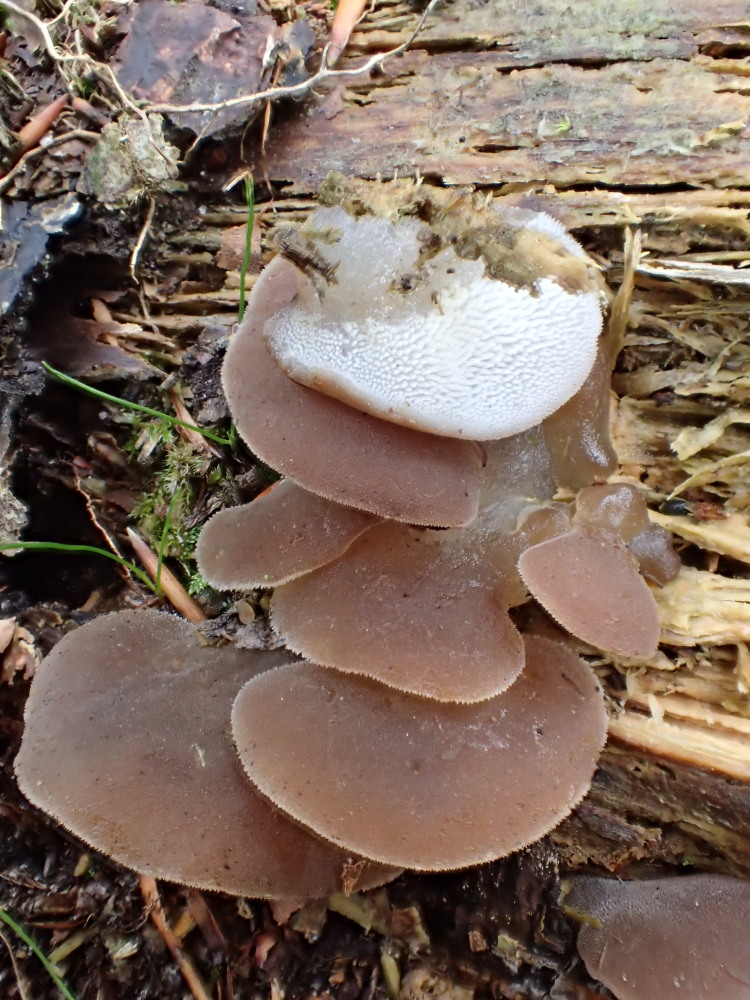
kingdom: Fungi
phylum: Basidiomycota
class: Agaricomycetes
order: Auriculariales
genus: Pseudohydnum
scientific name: Pseudohydnum gelatinosum
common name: bævretand
